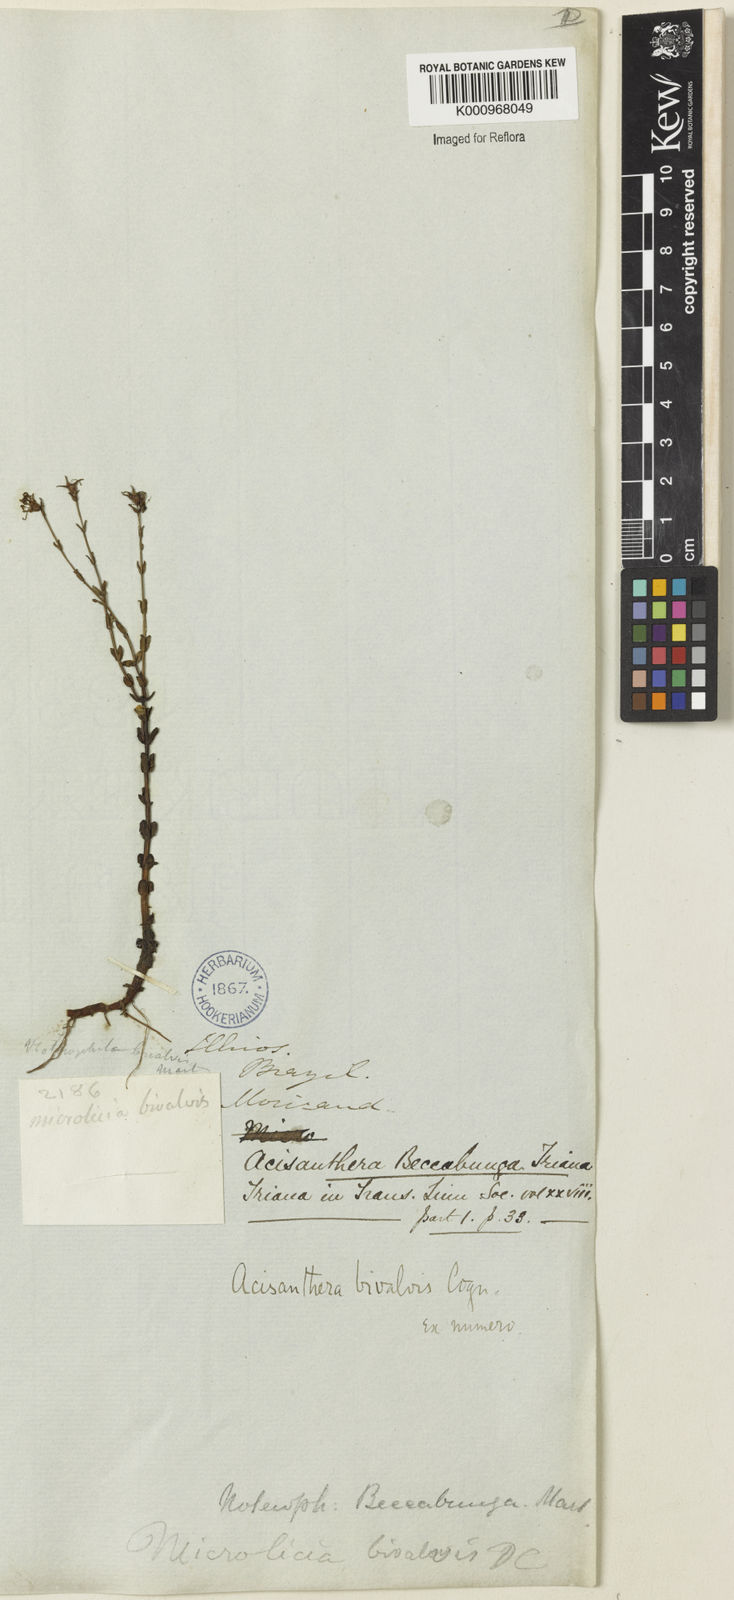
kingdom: Plantae
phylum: Tracheophyta
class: Magnoliopsida
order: Myrtales
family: Melastomataceae
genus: Noterophila
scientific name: Noterophila bivalvis
